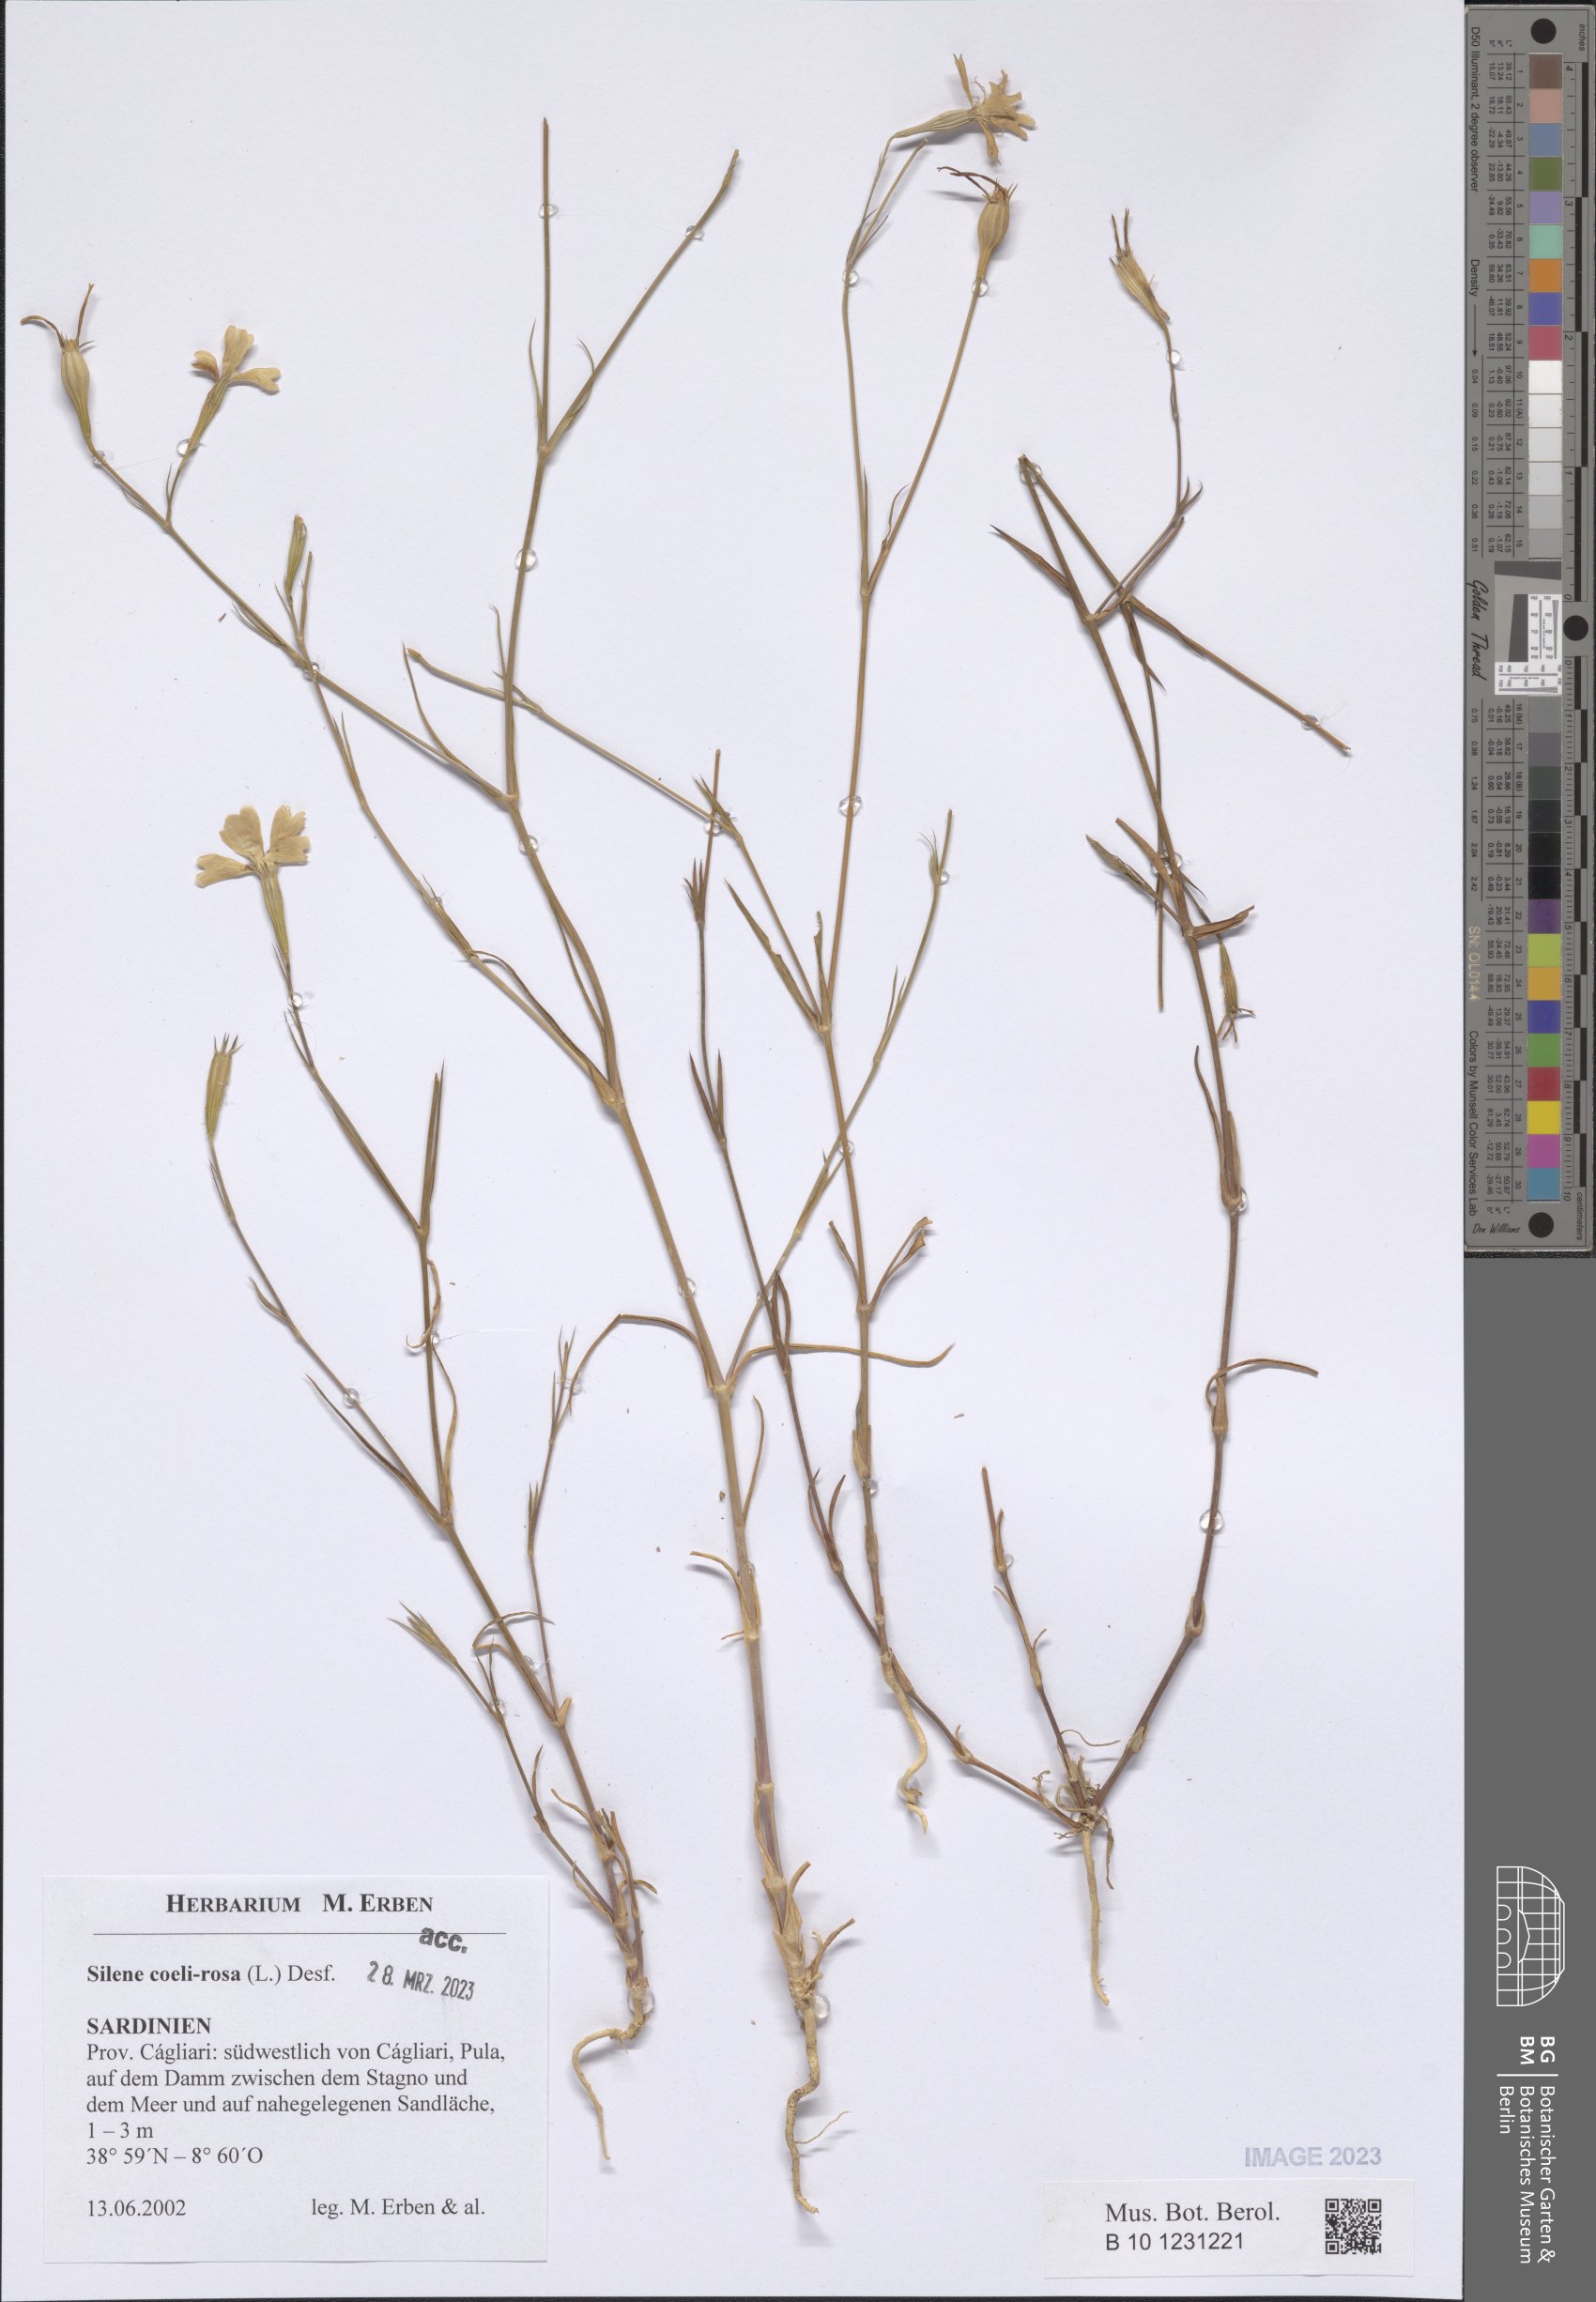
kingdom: Plantae
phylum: Tracheophyta
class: Magnoliopsida
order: Caryophyllales
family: Caryophyllaceae
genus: Eudianthe
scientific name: Eudianthe coeli-rosa
